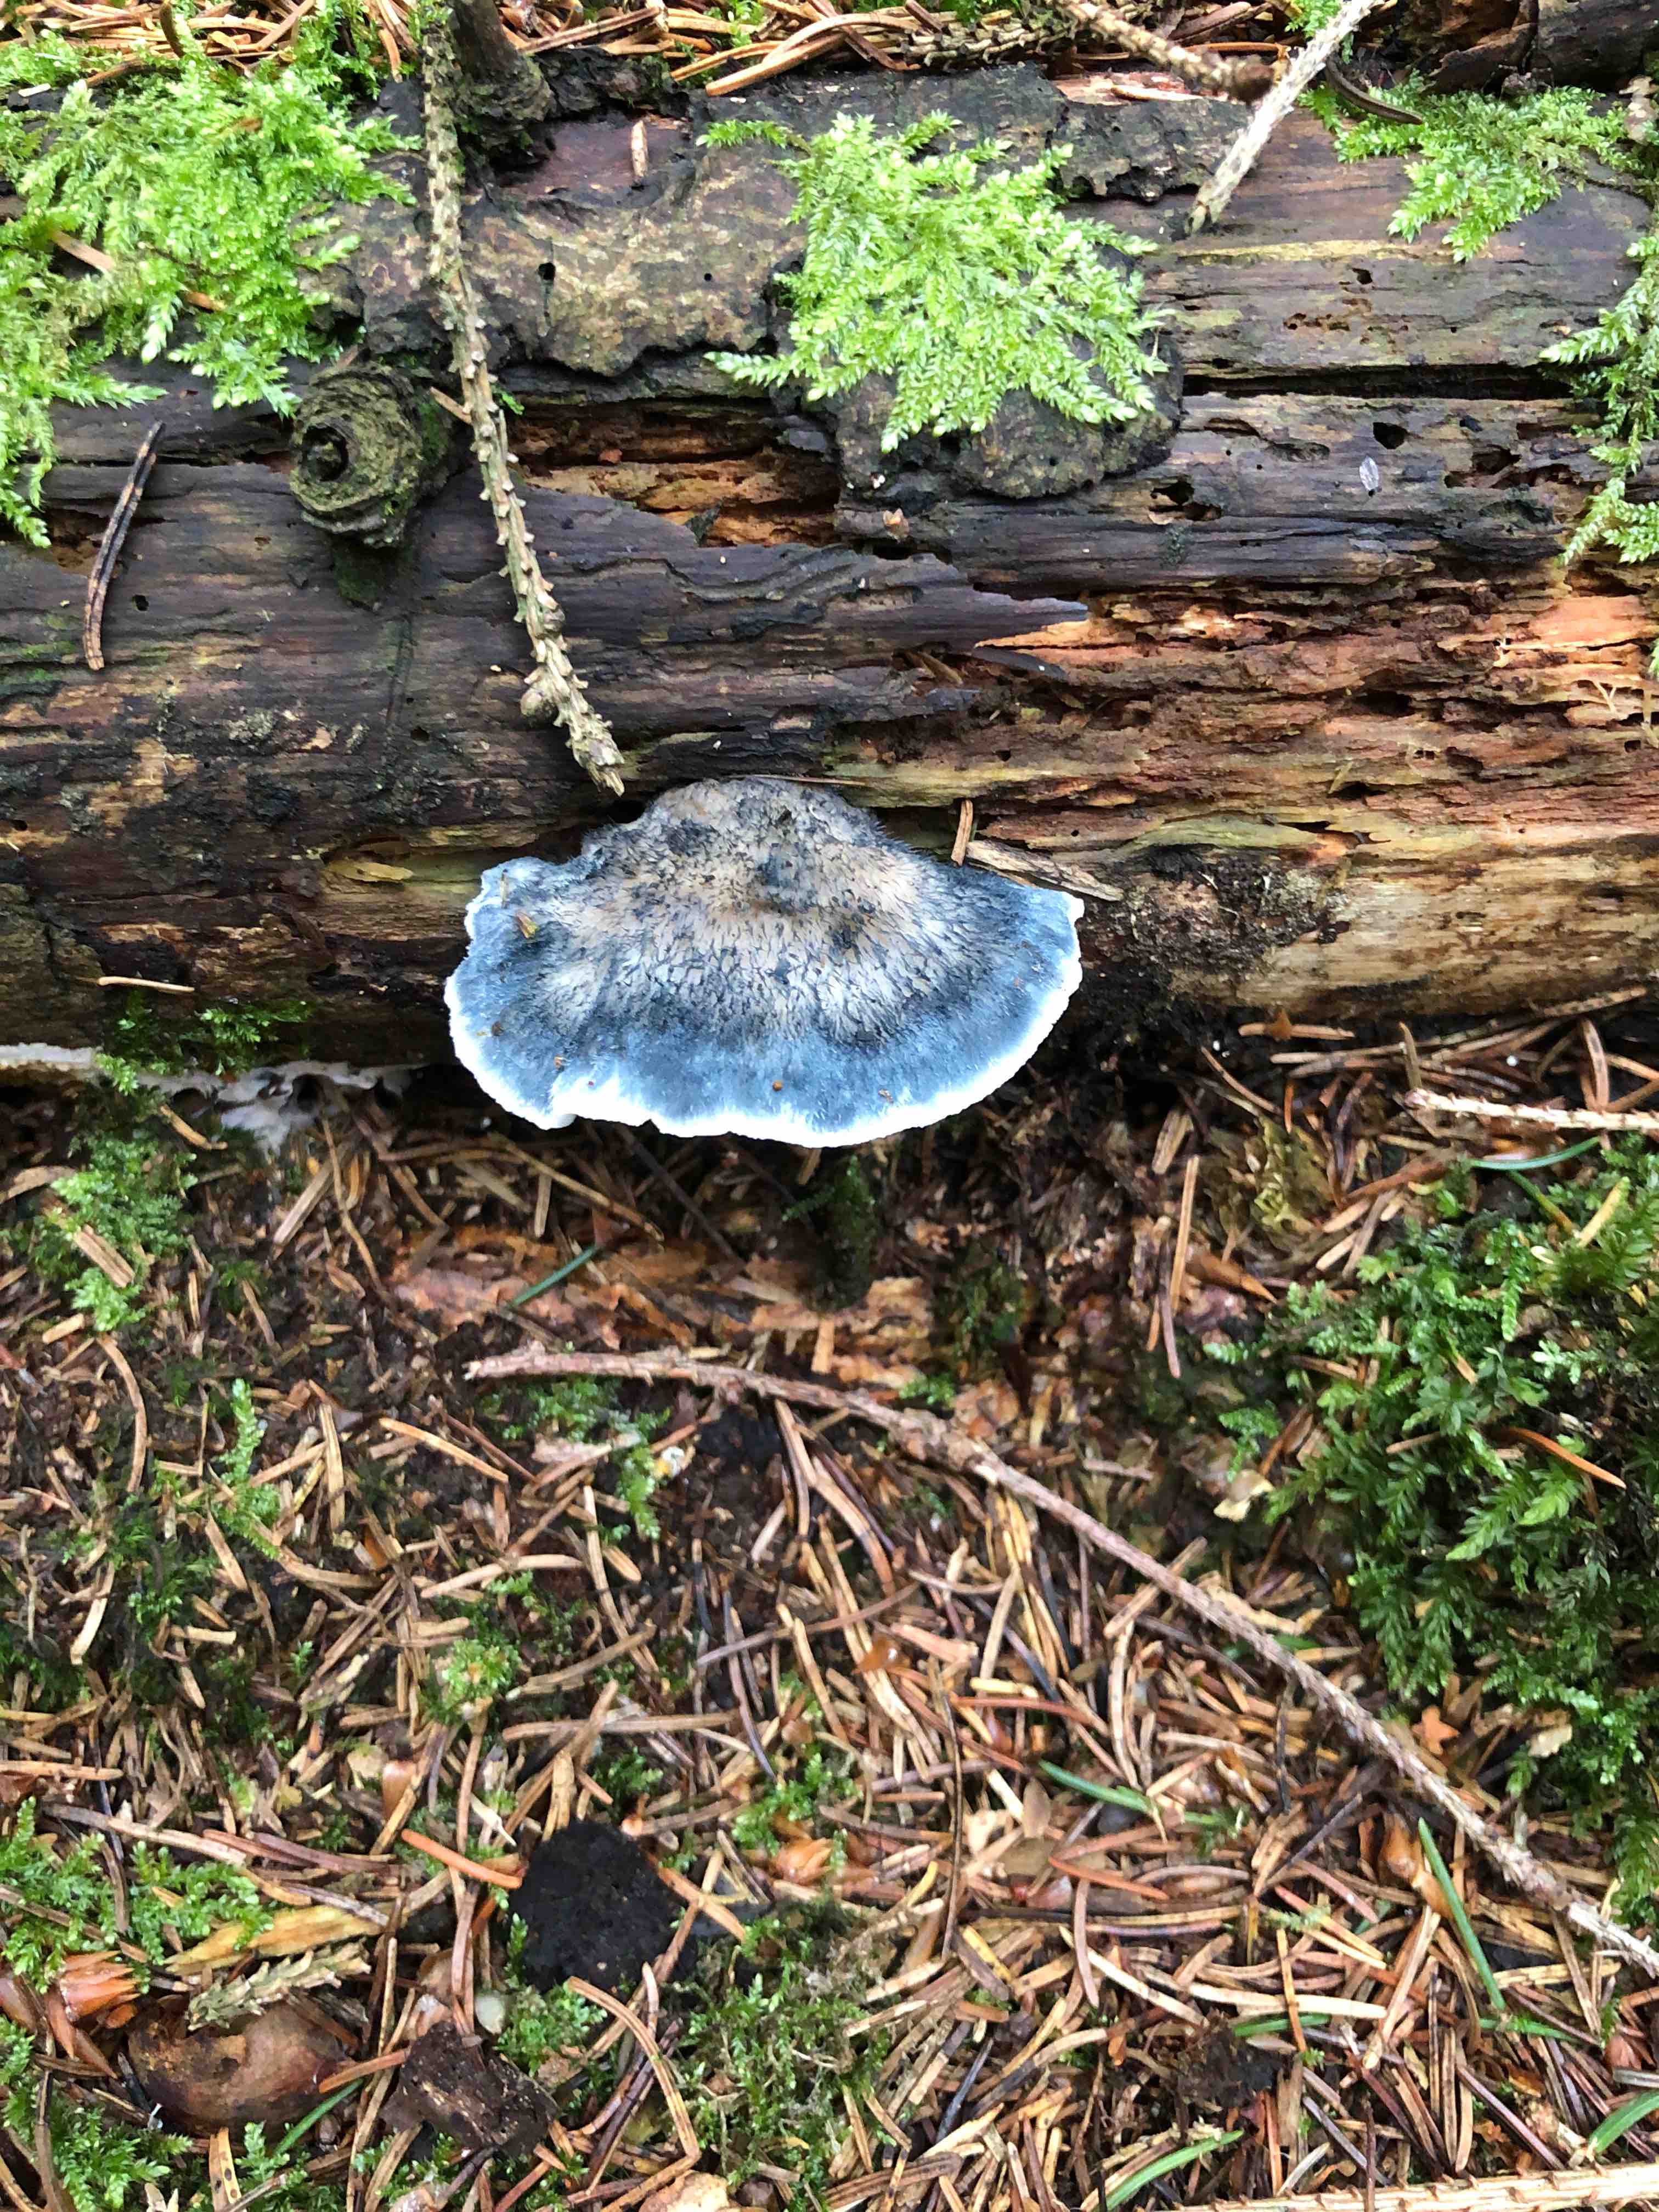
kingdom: Fungi
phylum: Basidiomycota
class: Agaricomycetes
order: Polyporales
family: Polyporaceae
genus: Cyanosporus
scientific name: Cyanosporus caesius
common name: blålig kødporesvamp
